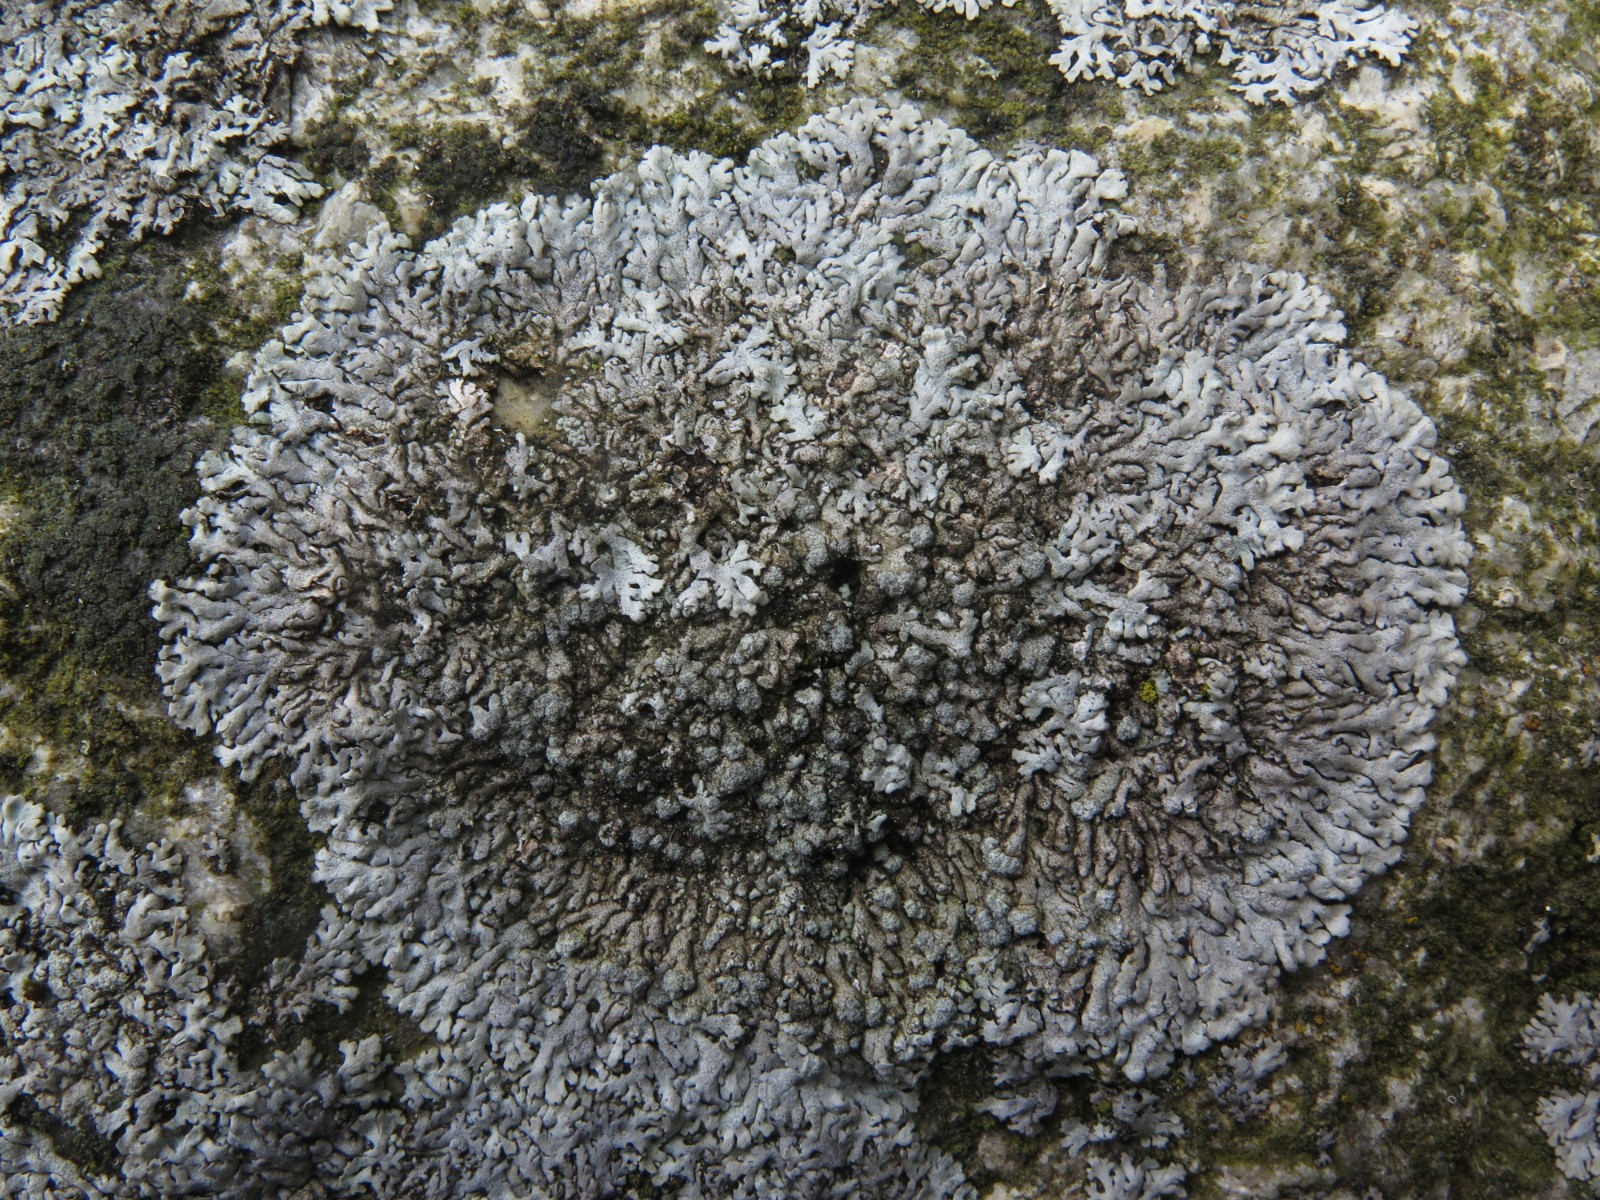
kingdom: Fungi
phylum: Ascomycota
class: Lecanoromycetes
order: Caliciales
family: Physciaceae
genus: Physcia
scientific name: Physcia caesia
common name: blågrå rosetlav
